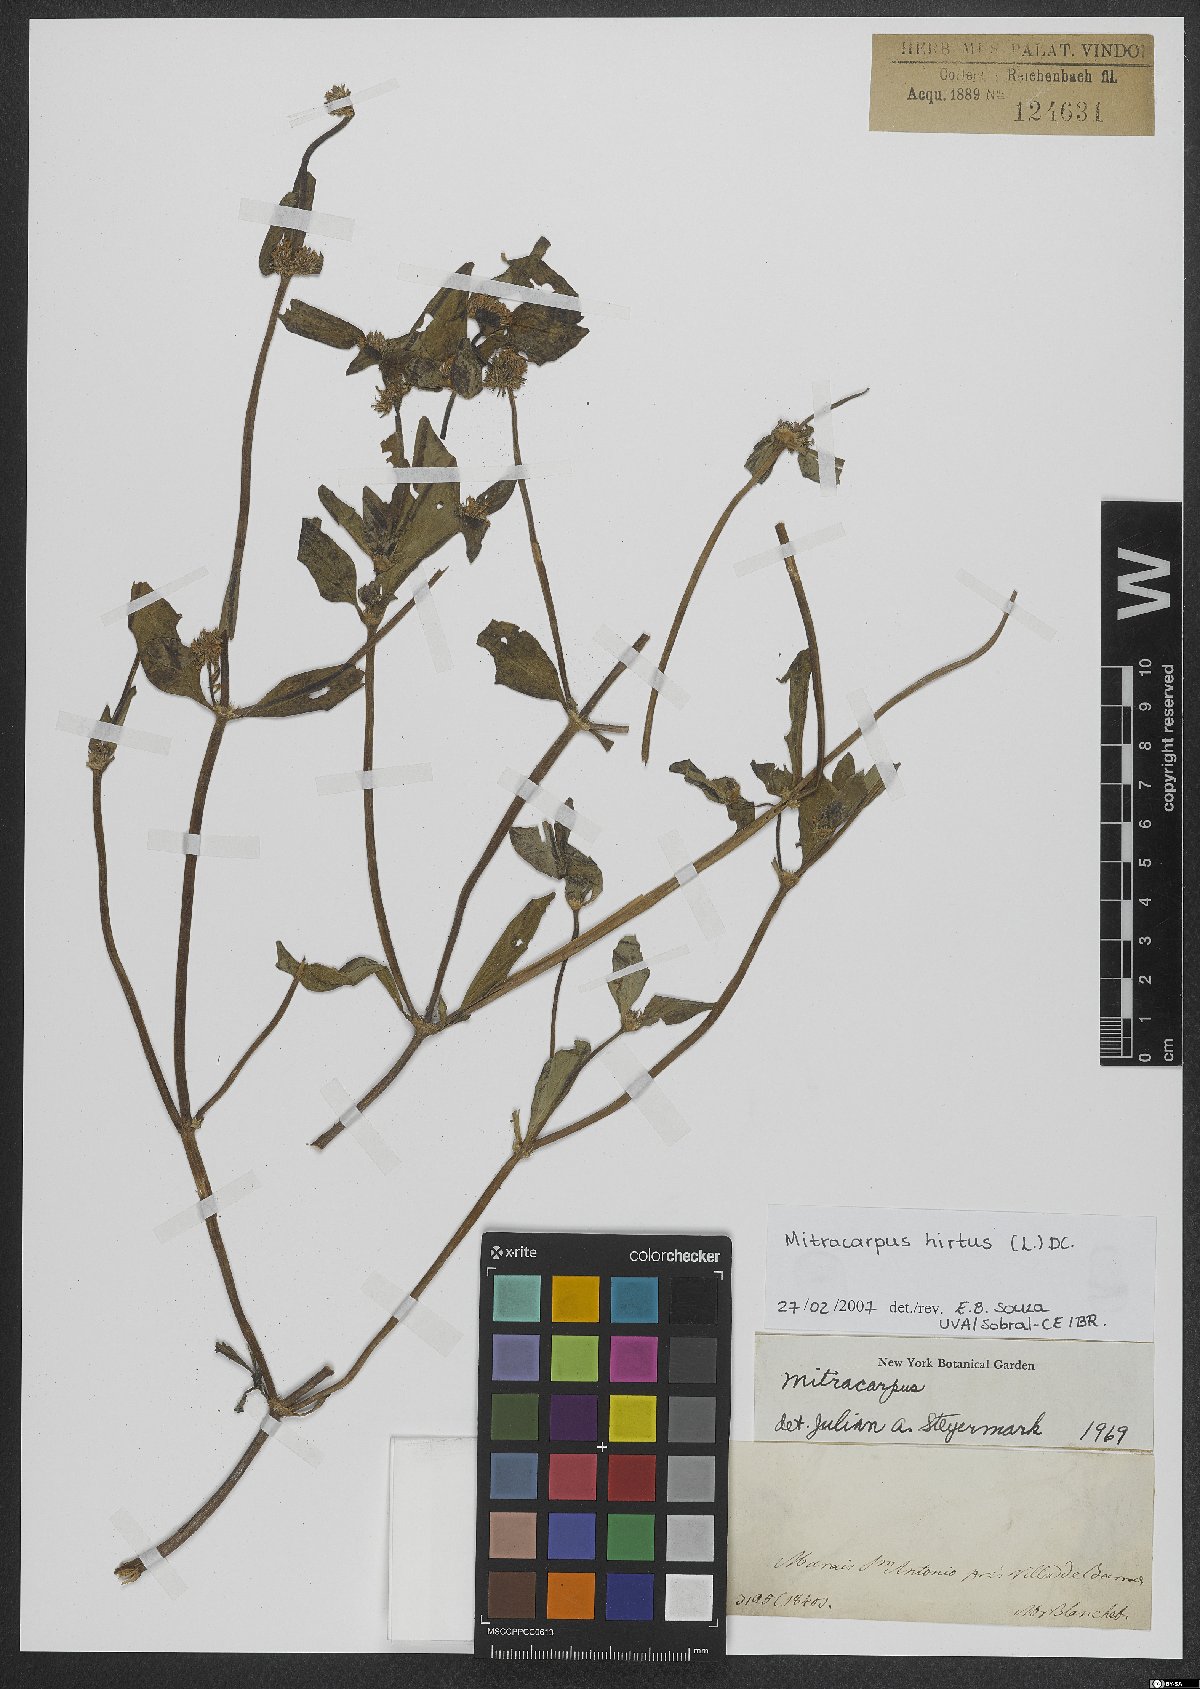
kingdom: Plantae
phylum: Tracheophyta
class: Magnoliopsida
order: Gentianales
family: Rubiaceae
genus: Mitracarpus
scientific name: Mitracarpus hirtus
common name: Tropical girdlepod
